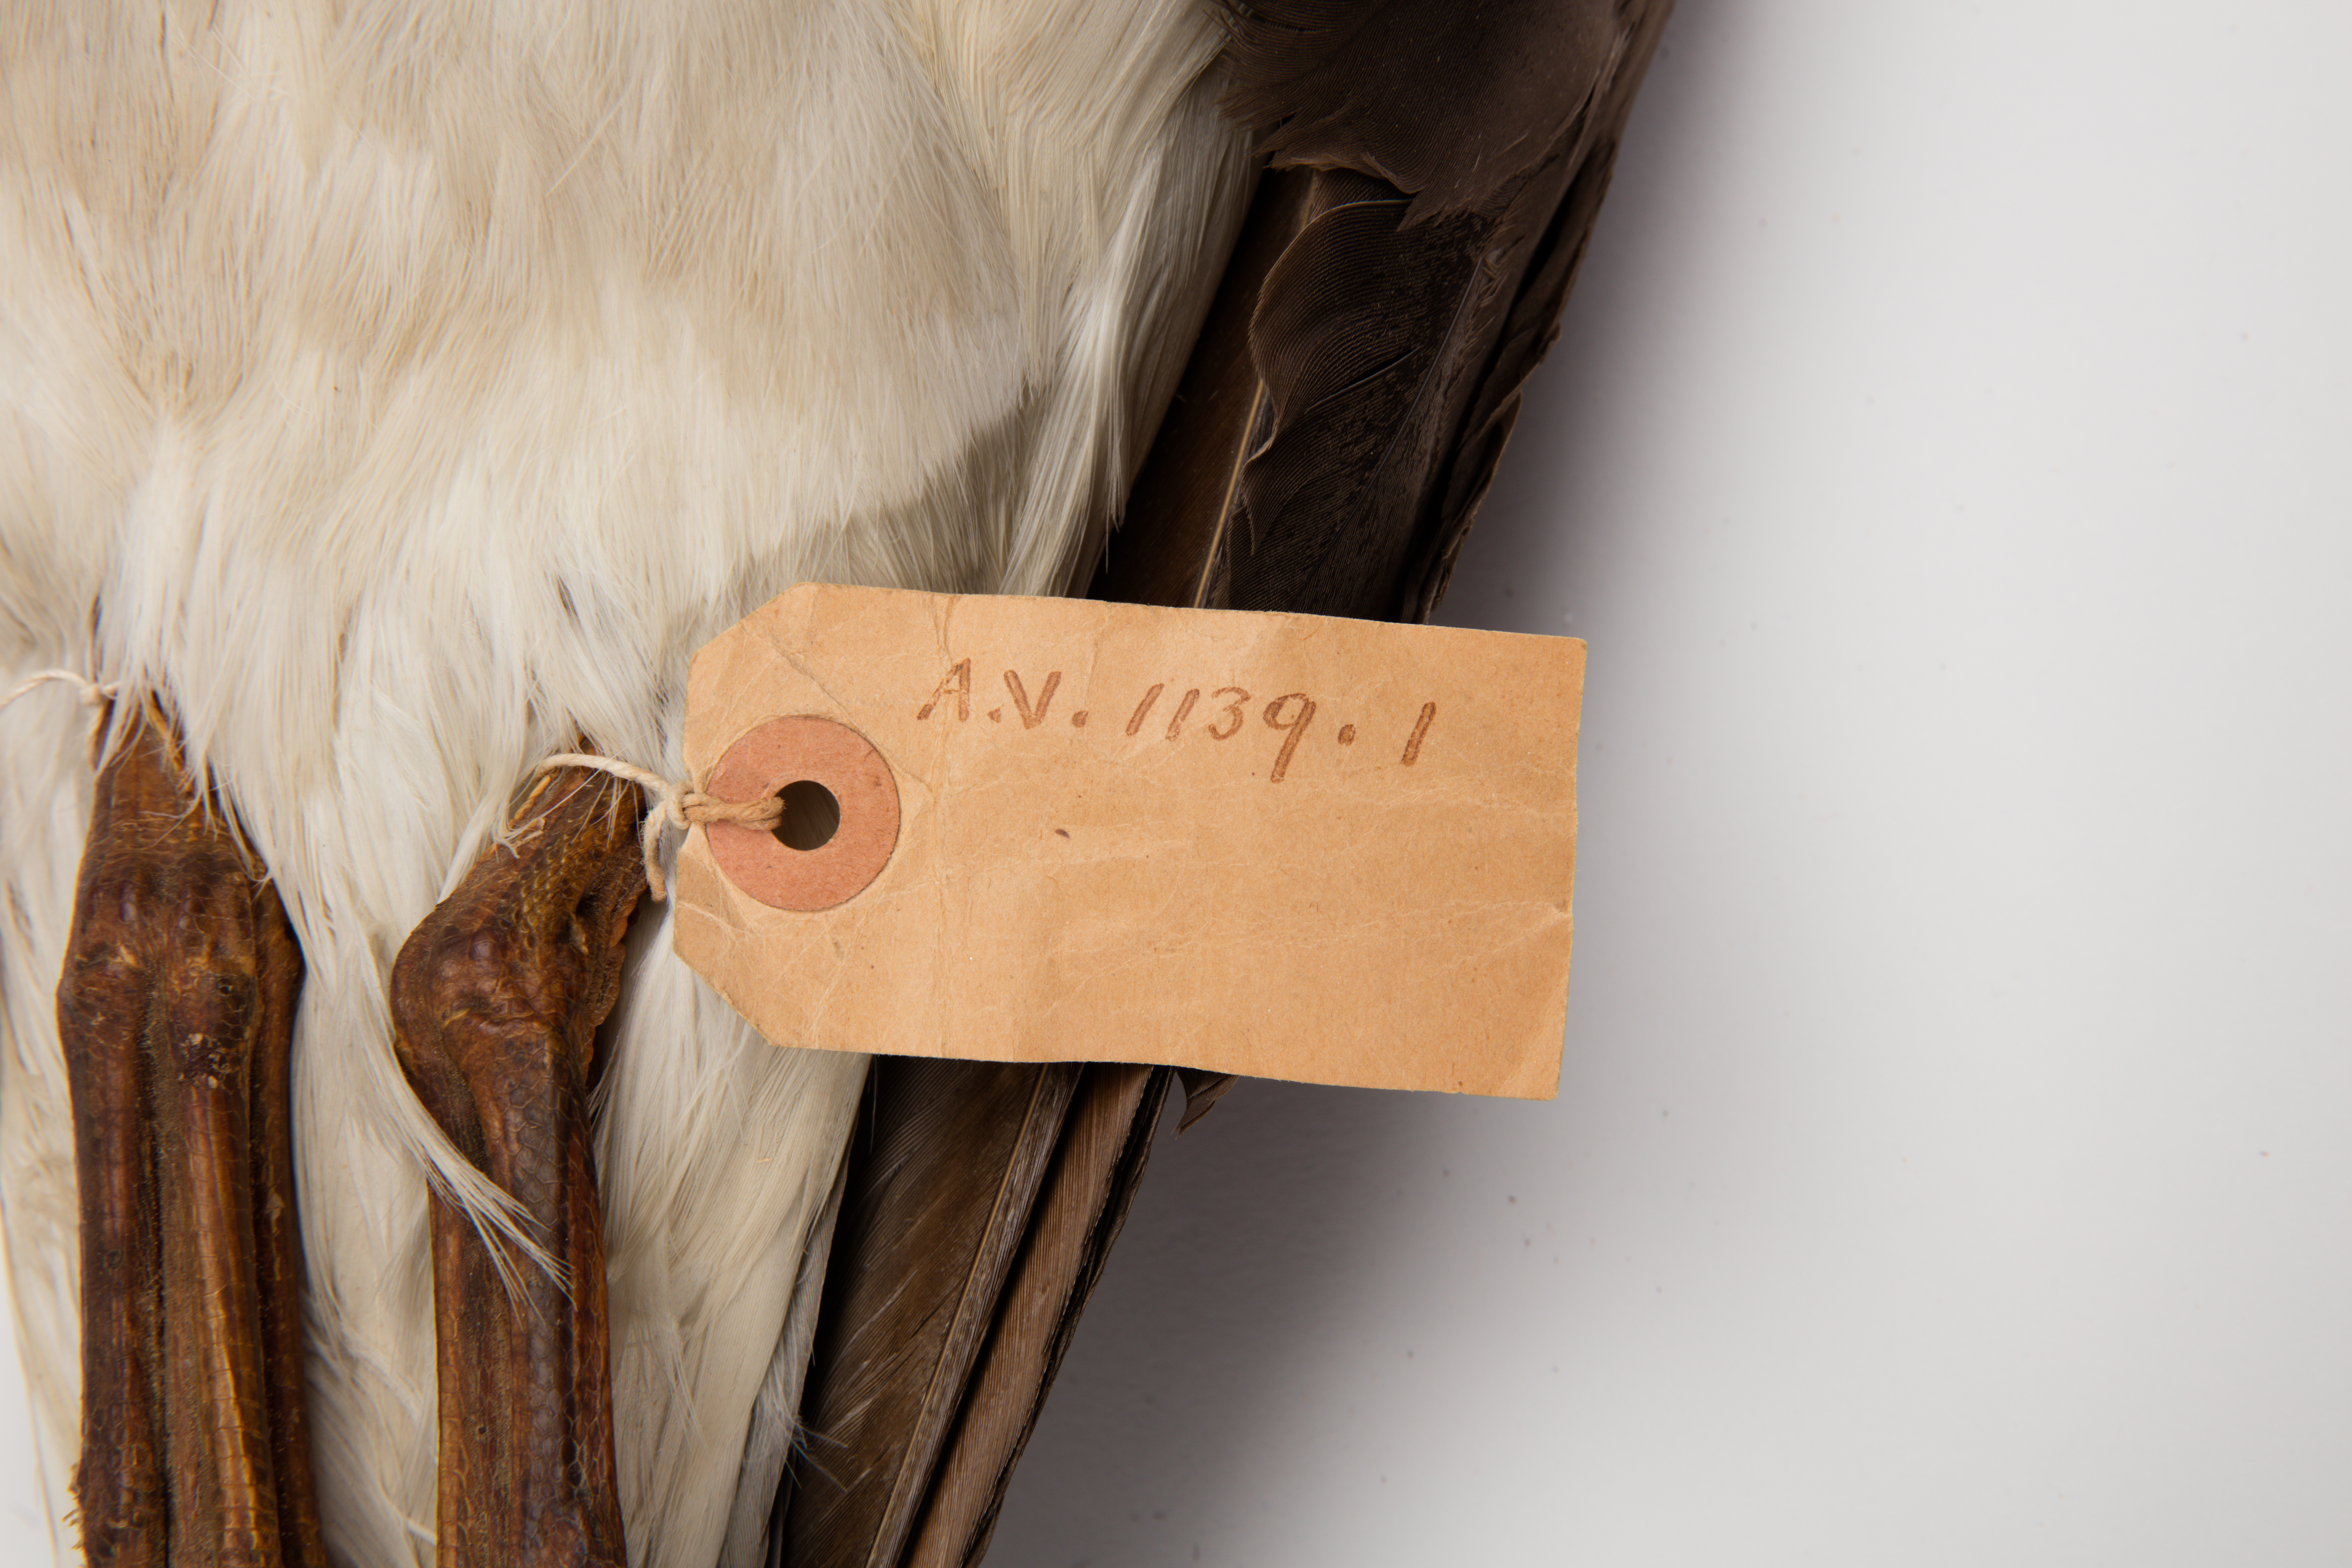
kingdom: Animalia
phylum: Chordata
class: Aves
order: Procellariiformes
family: Diomedeidae
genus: Thalassarche
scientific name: Thalassarche bulleri
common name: Buller's albatross
